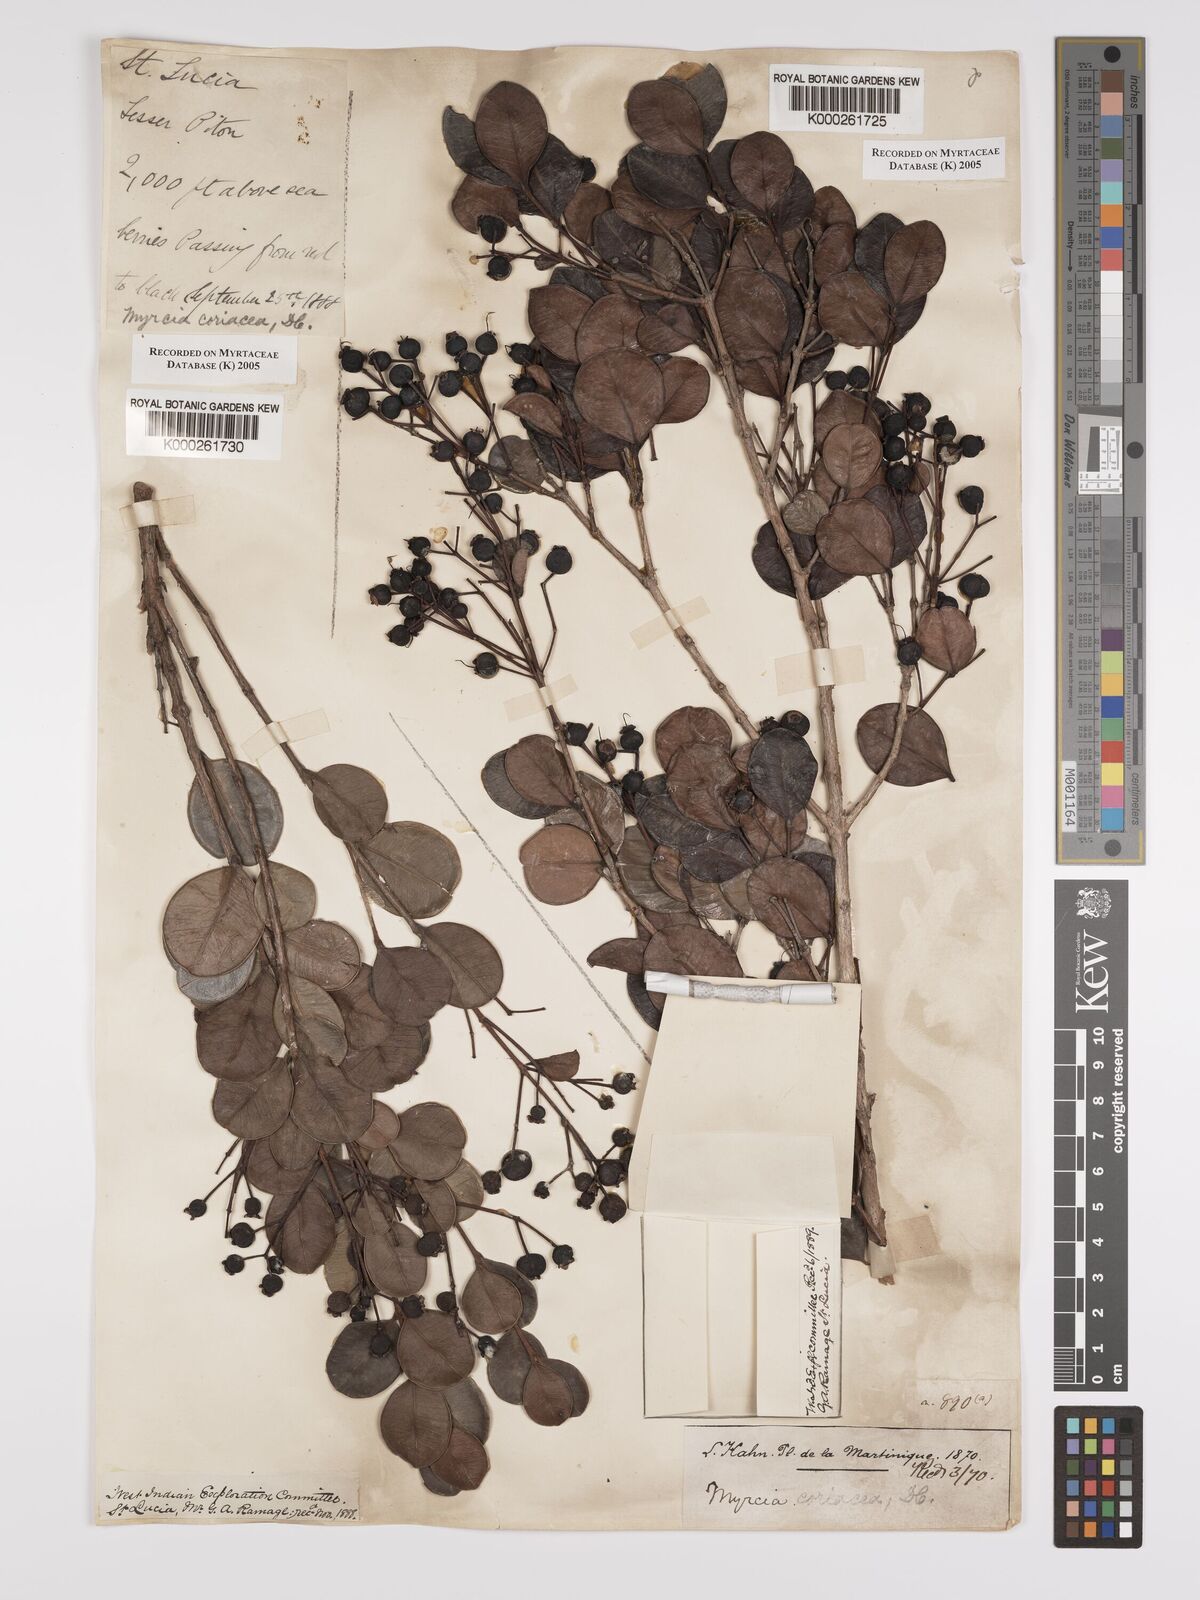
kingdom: Plantae
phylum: Tracheophyta
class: Magnoliopsida
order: Myrtales
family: Myrtaceae
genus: Myrcia
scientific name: Myrcia guianensis
